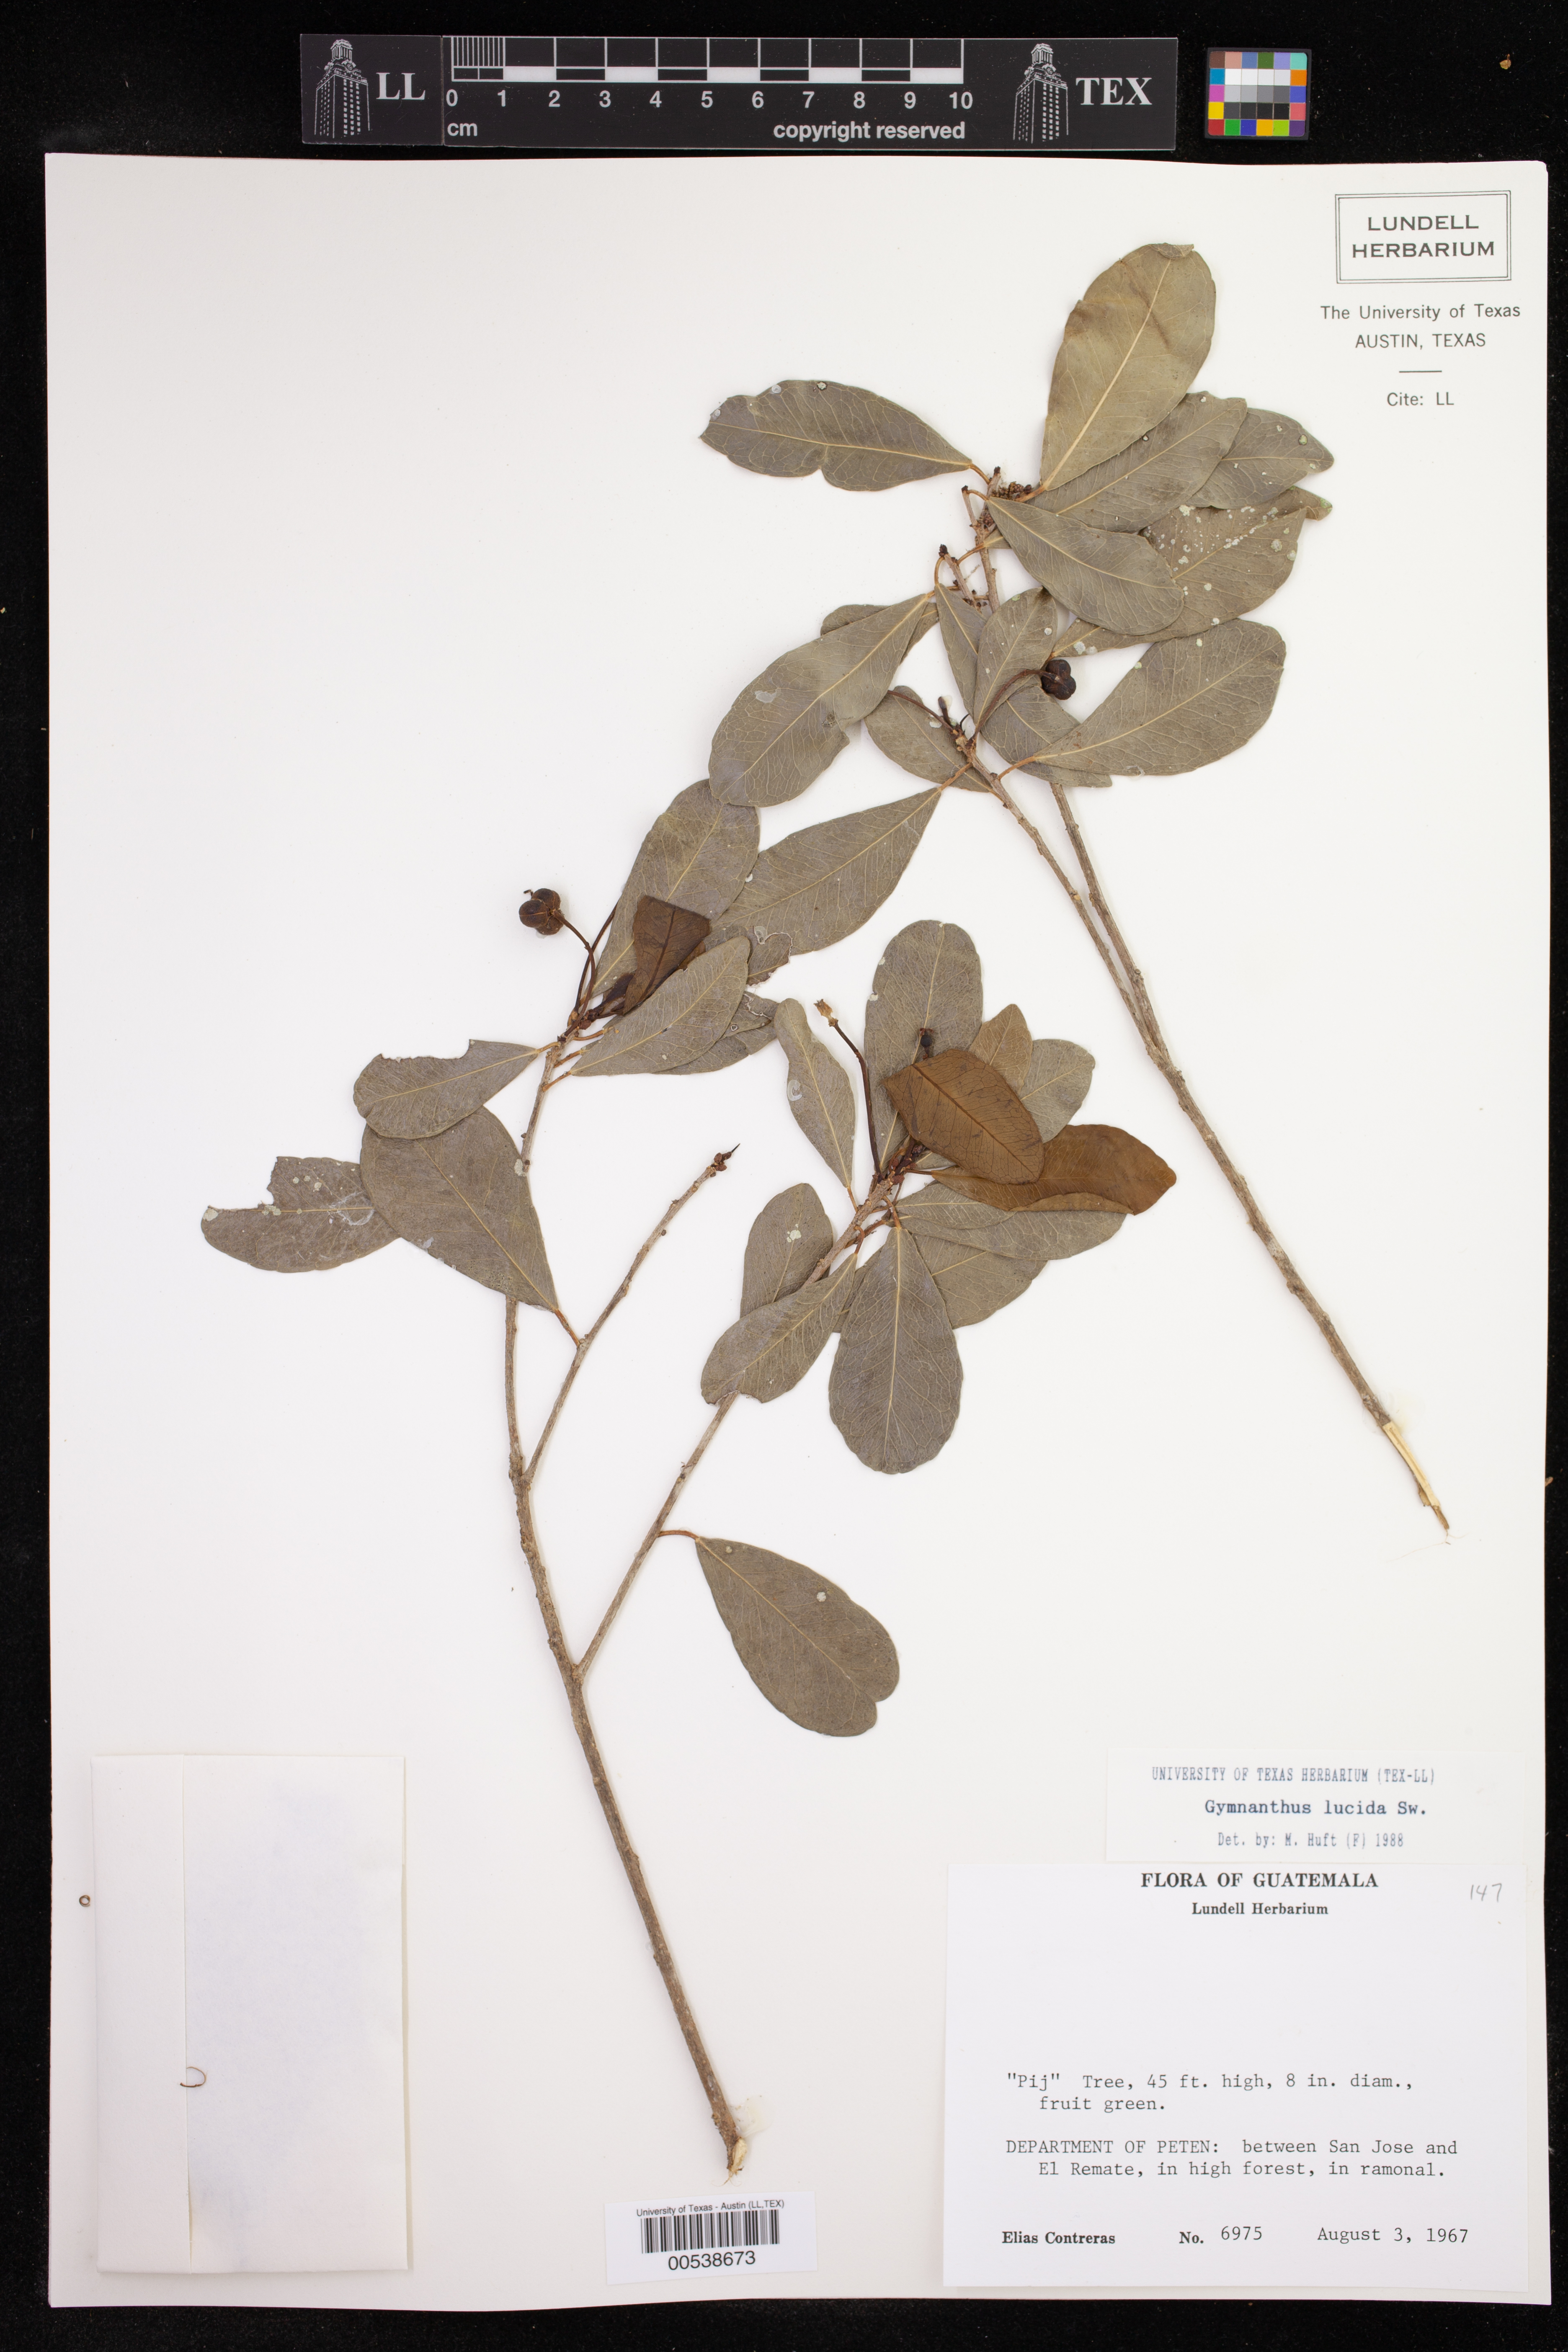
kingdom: Plantae
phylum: Tracheophyta
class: Magnoliopsida
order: Malpighiales
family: Euphorbiaceae
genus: Gymnanthes
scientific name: Gymnanthes lucida
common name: Oysterwood
